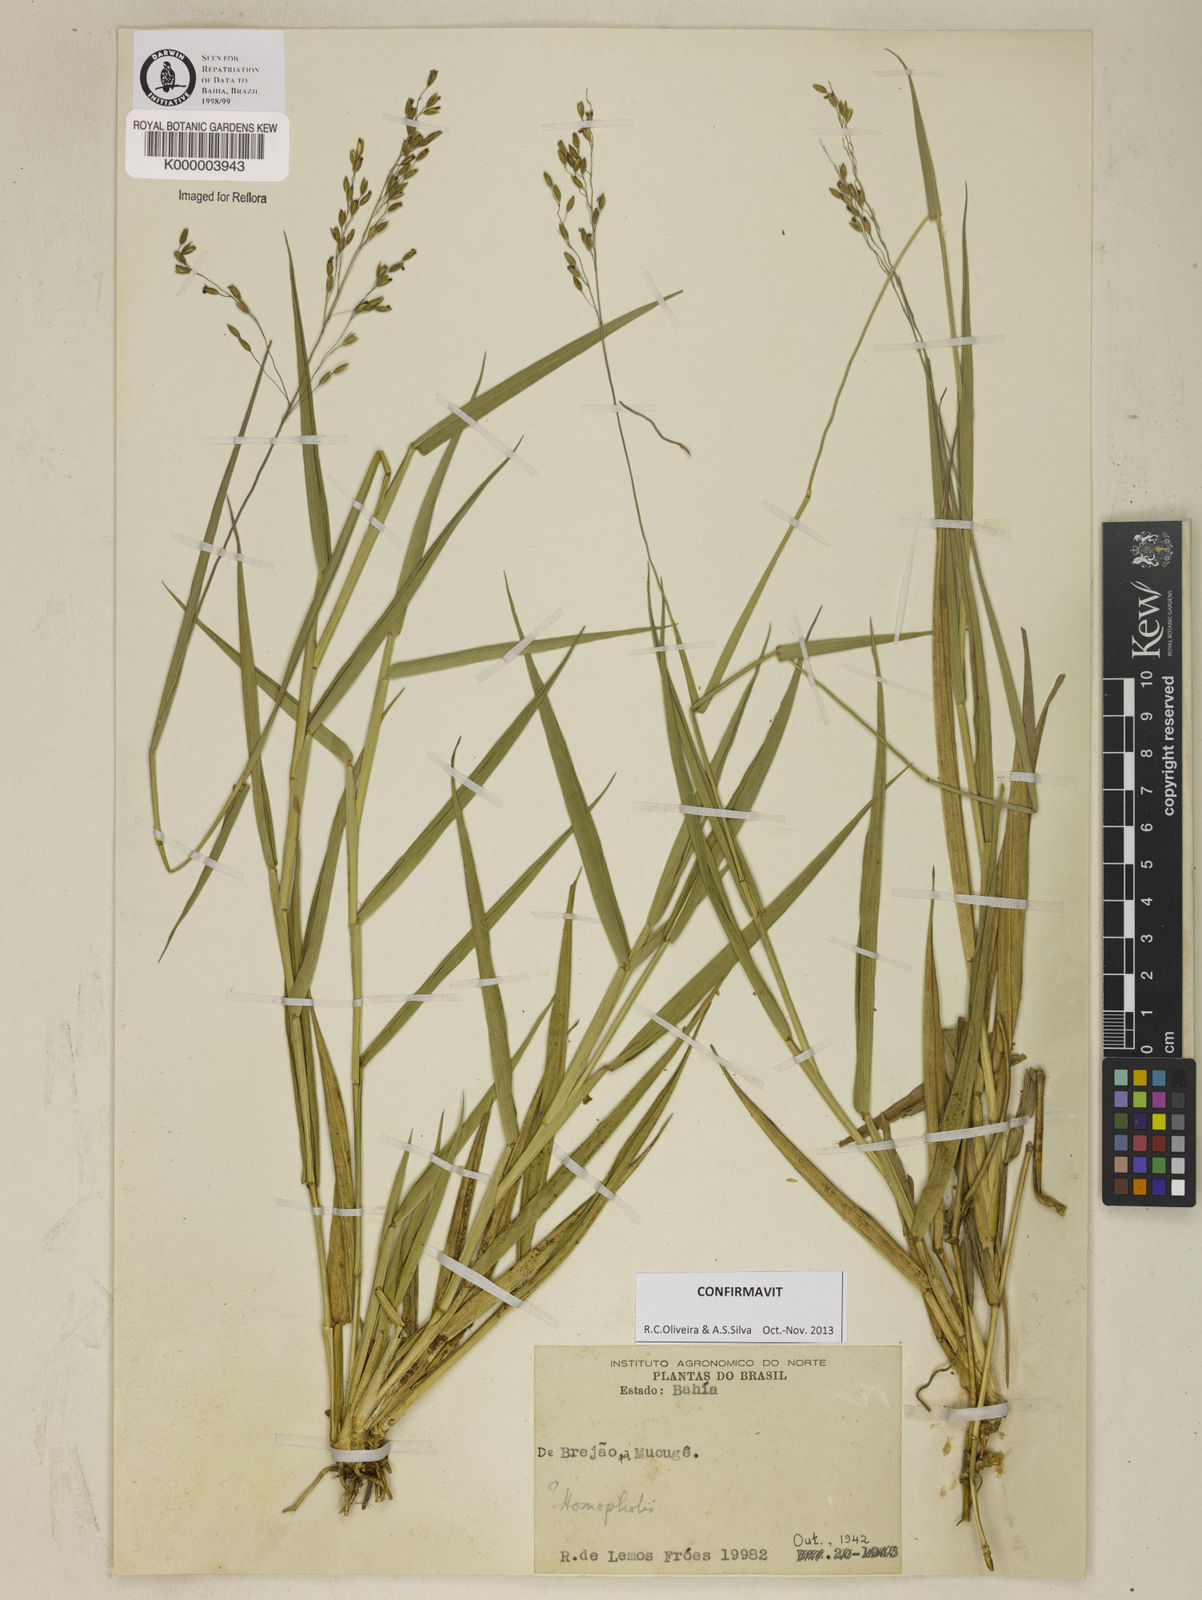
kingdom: Plantae
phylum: Tracheophyta
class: Liliopsida
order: Poales
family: Poaceae
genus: Homolepis
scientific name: Homolepis
